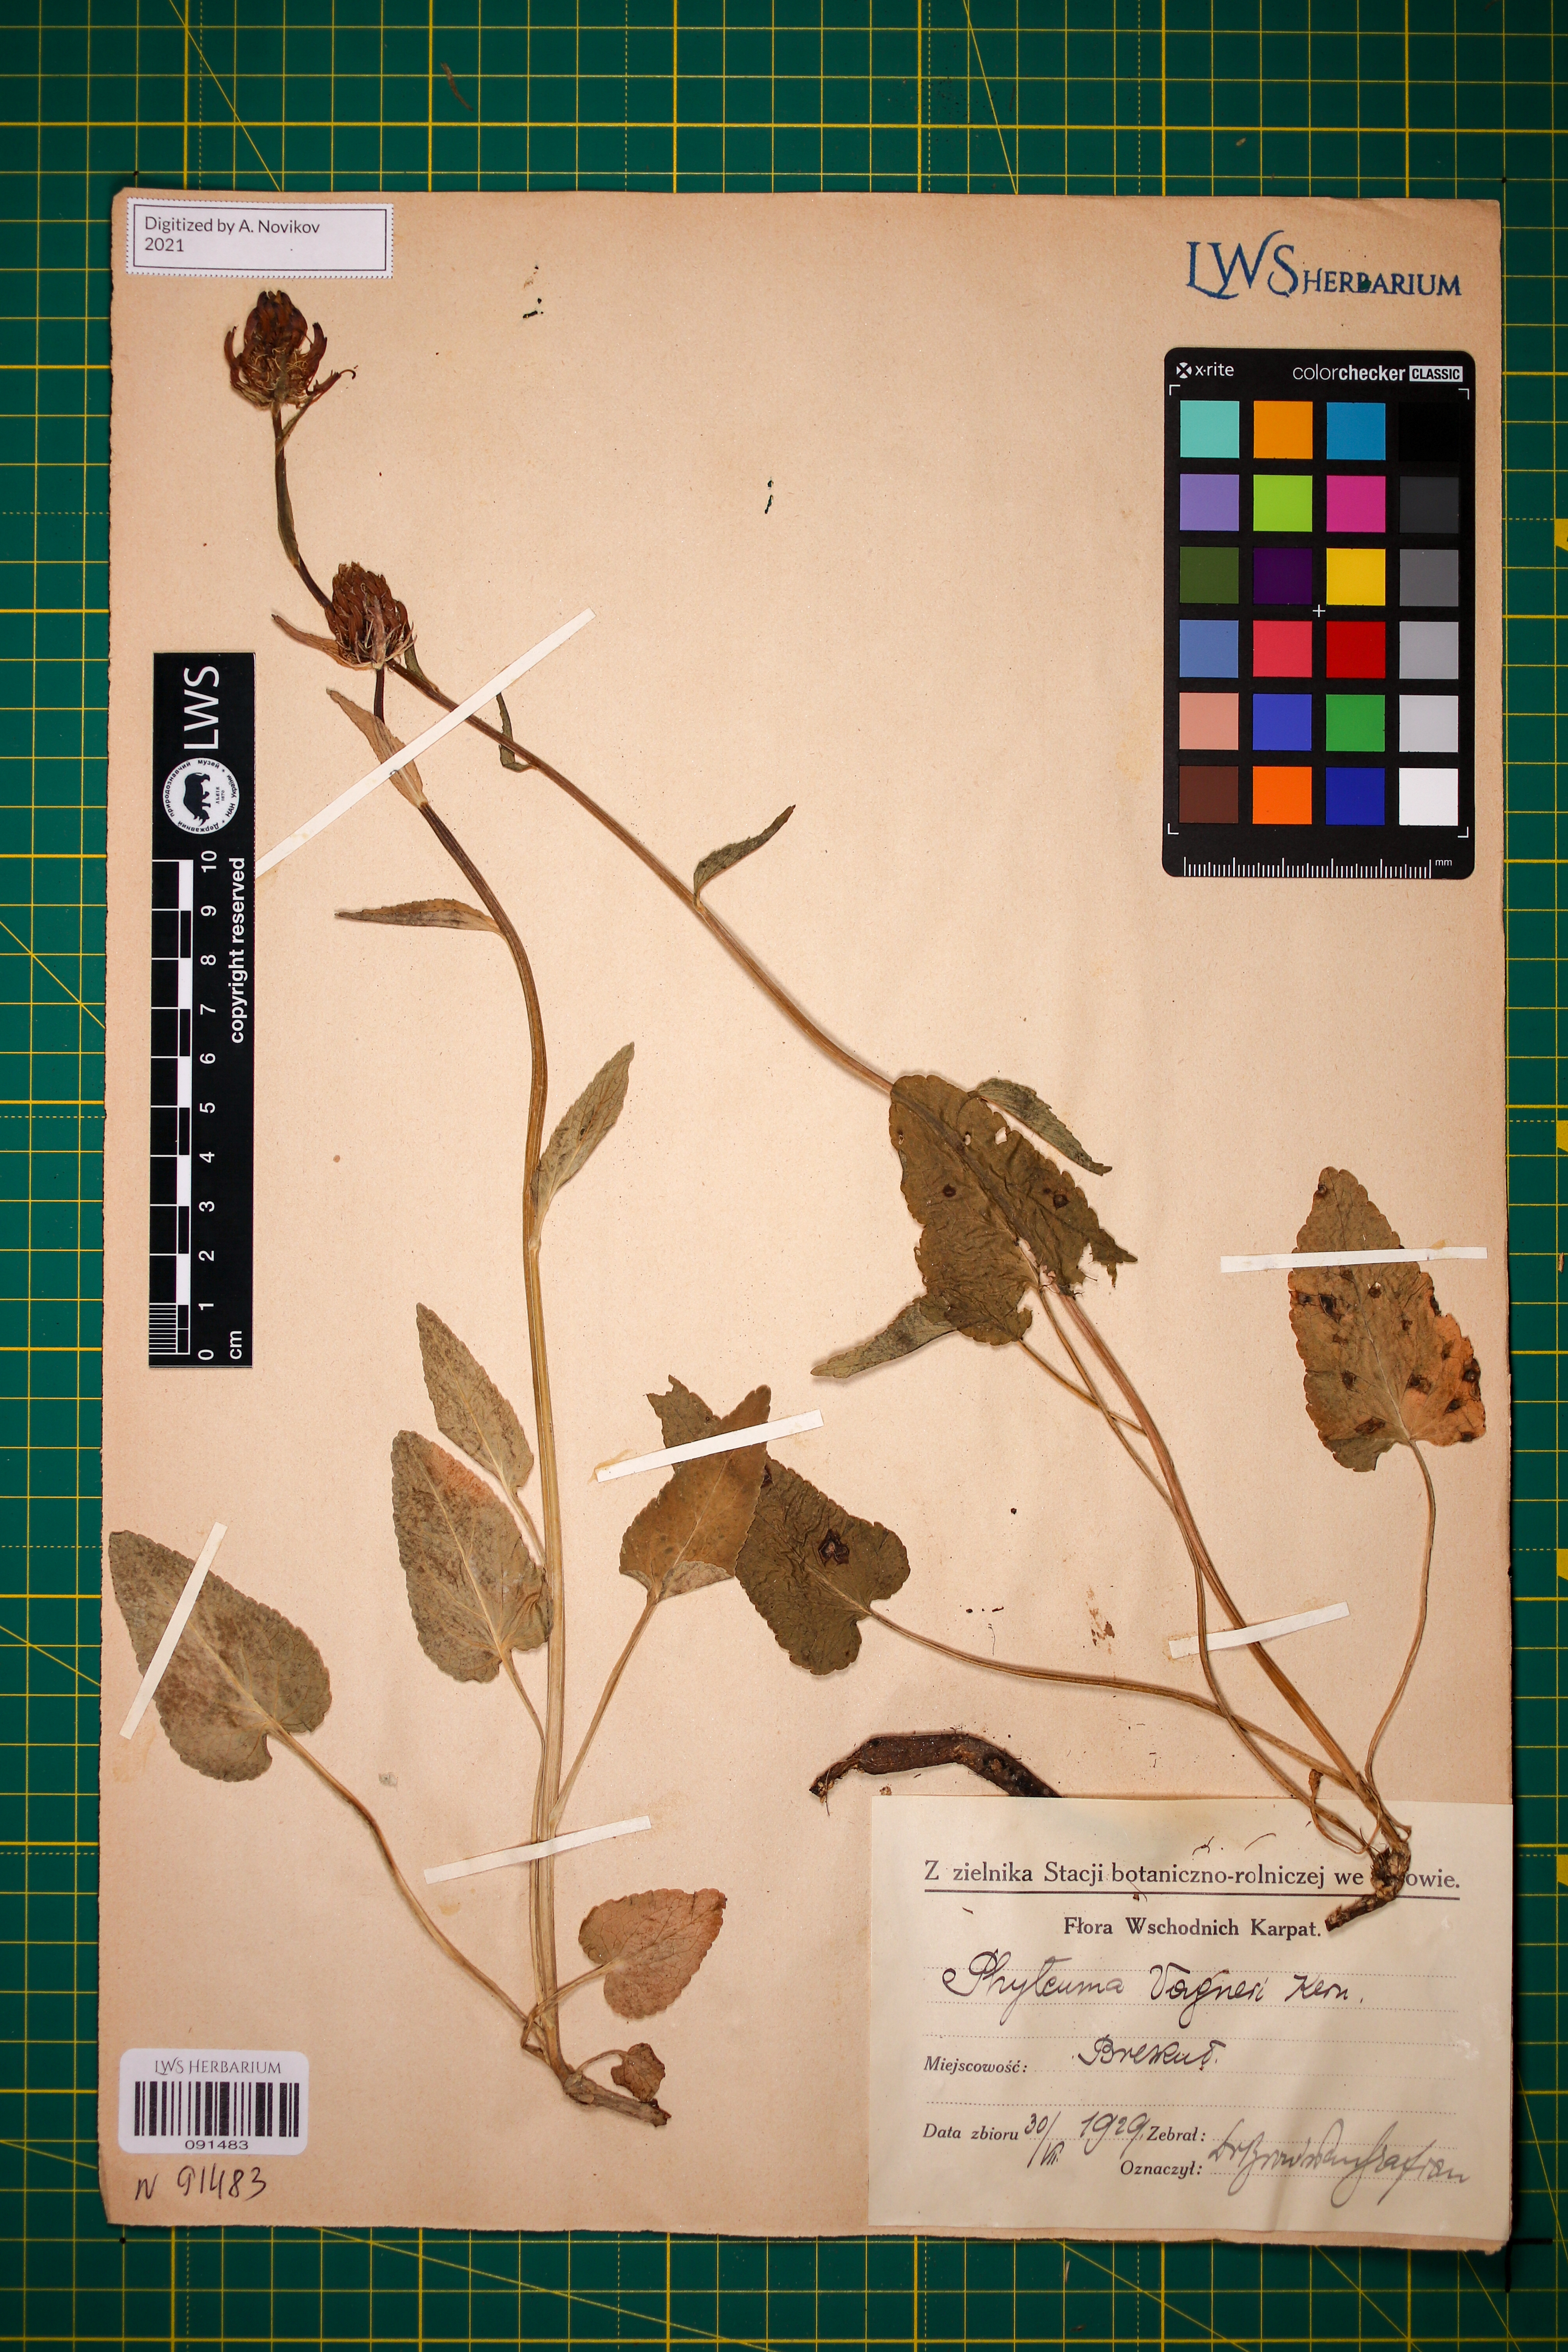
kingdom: Plantae
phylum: Tracheophyta
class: Magnoliopsida
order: Asterales
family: Campanulaceae
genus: Phyteuma
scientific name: Phyteuma vagneri
